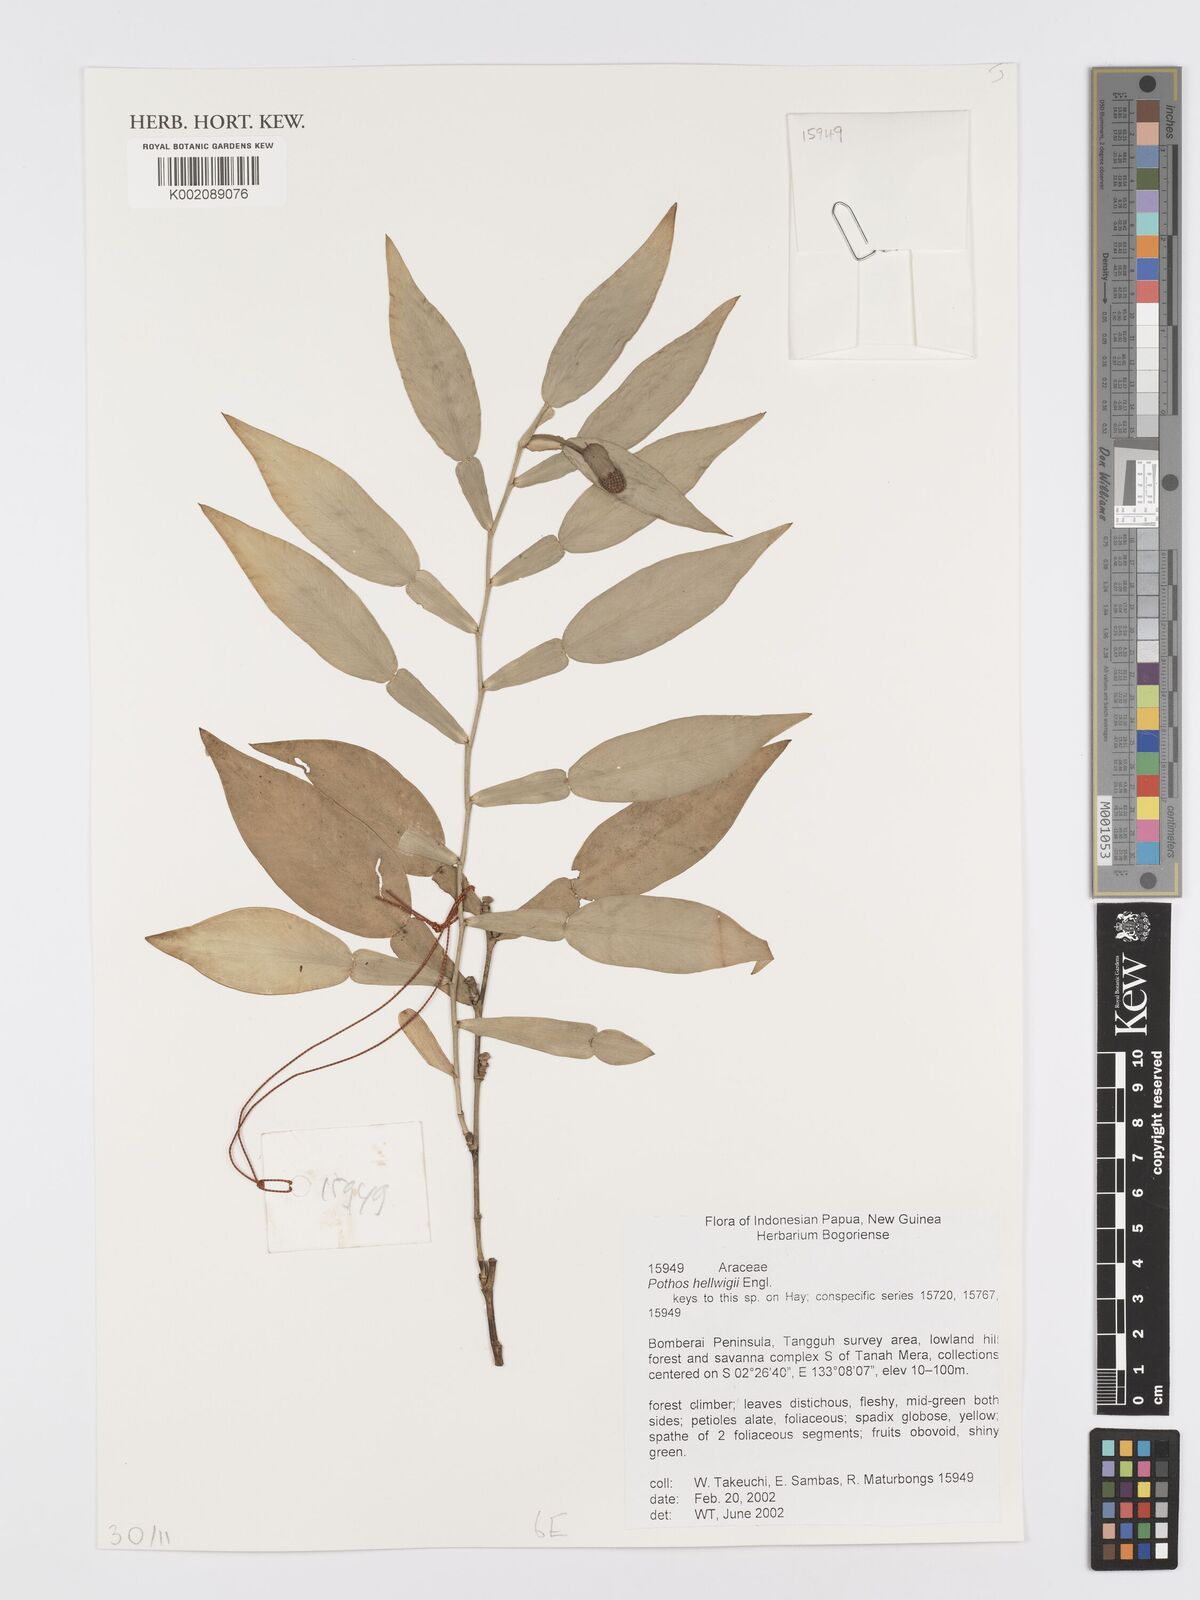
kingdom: Plantae
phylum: Tracheophyta
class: Liliopsida
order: Alismatales
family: Araceae
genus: Pothos
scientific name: Pothos hellwigii
